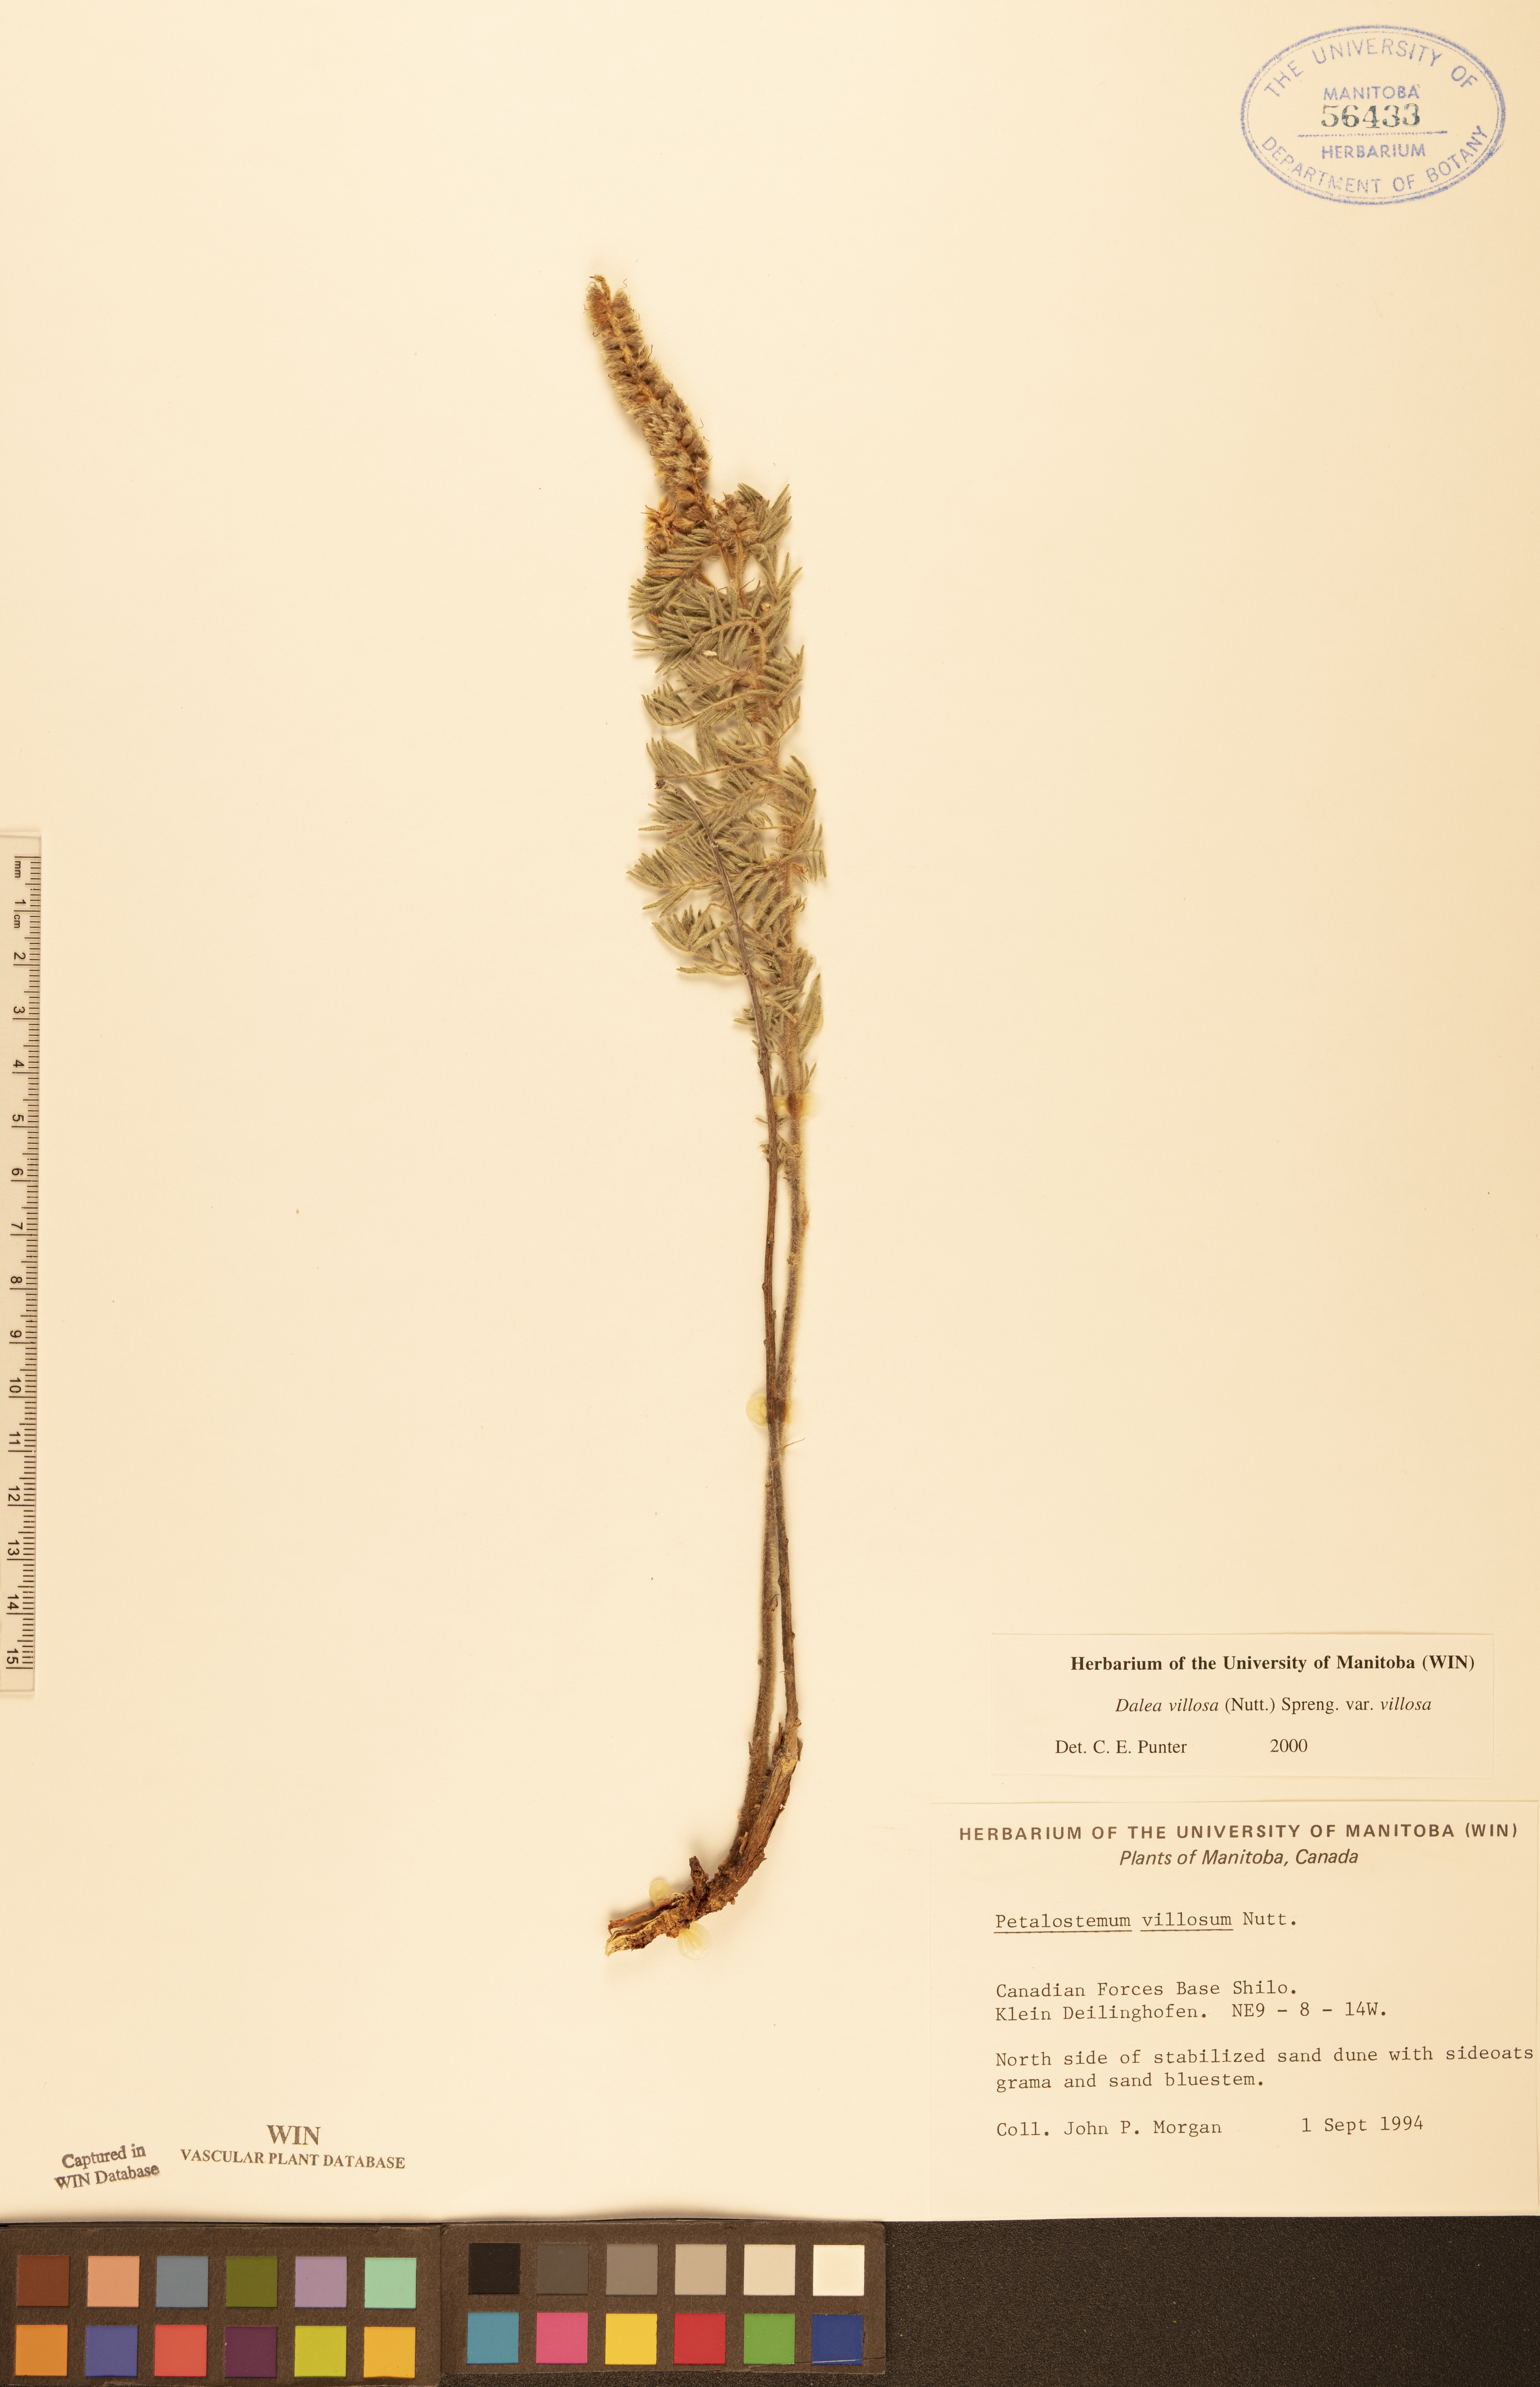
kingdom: Plantae
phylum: Tracheophyta
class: Magnoliopsida
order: Fabales
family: Fabaceae
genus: Dalea
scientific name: Dalea villosa
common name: Silky prairie-clover
